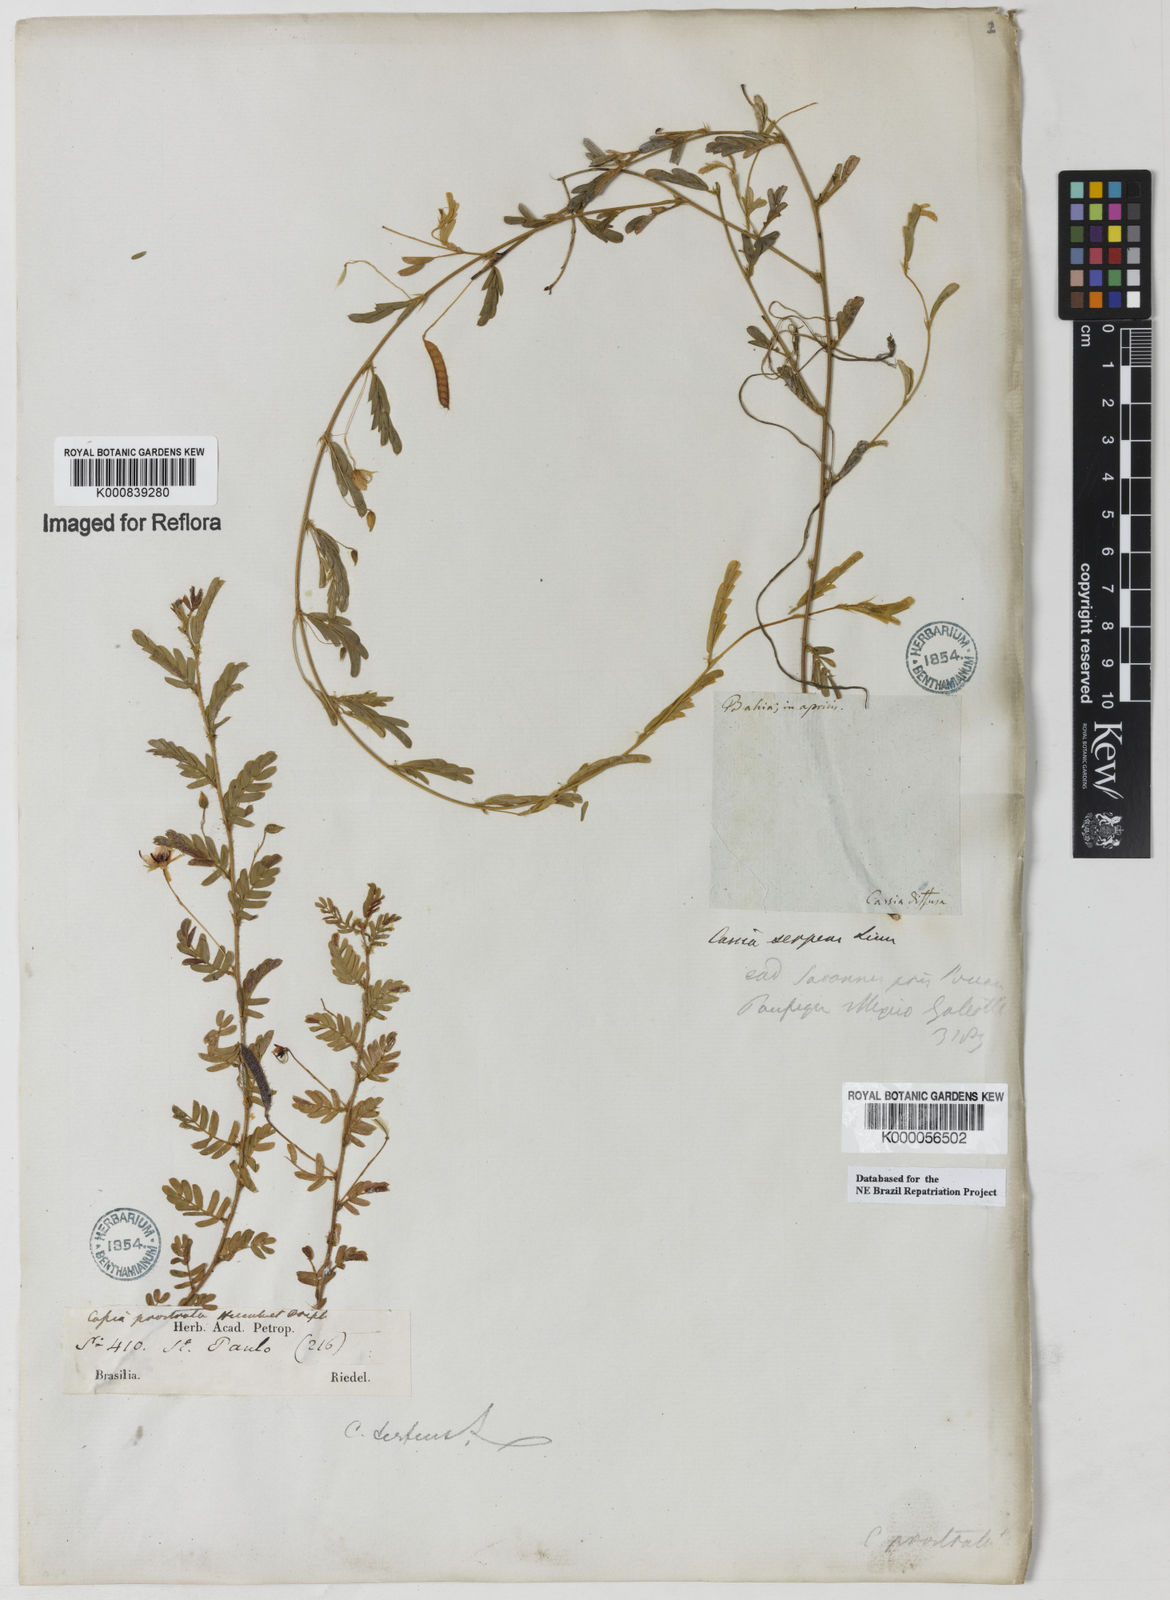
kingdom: Plantae
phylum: Tracheophyta
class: Magnoliopsida
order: Fabales
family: Fabaceae
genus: Chamaecrista
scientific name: Chamaecrista serpens
